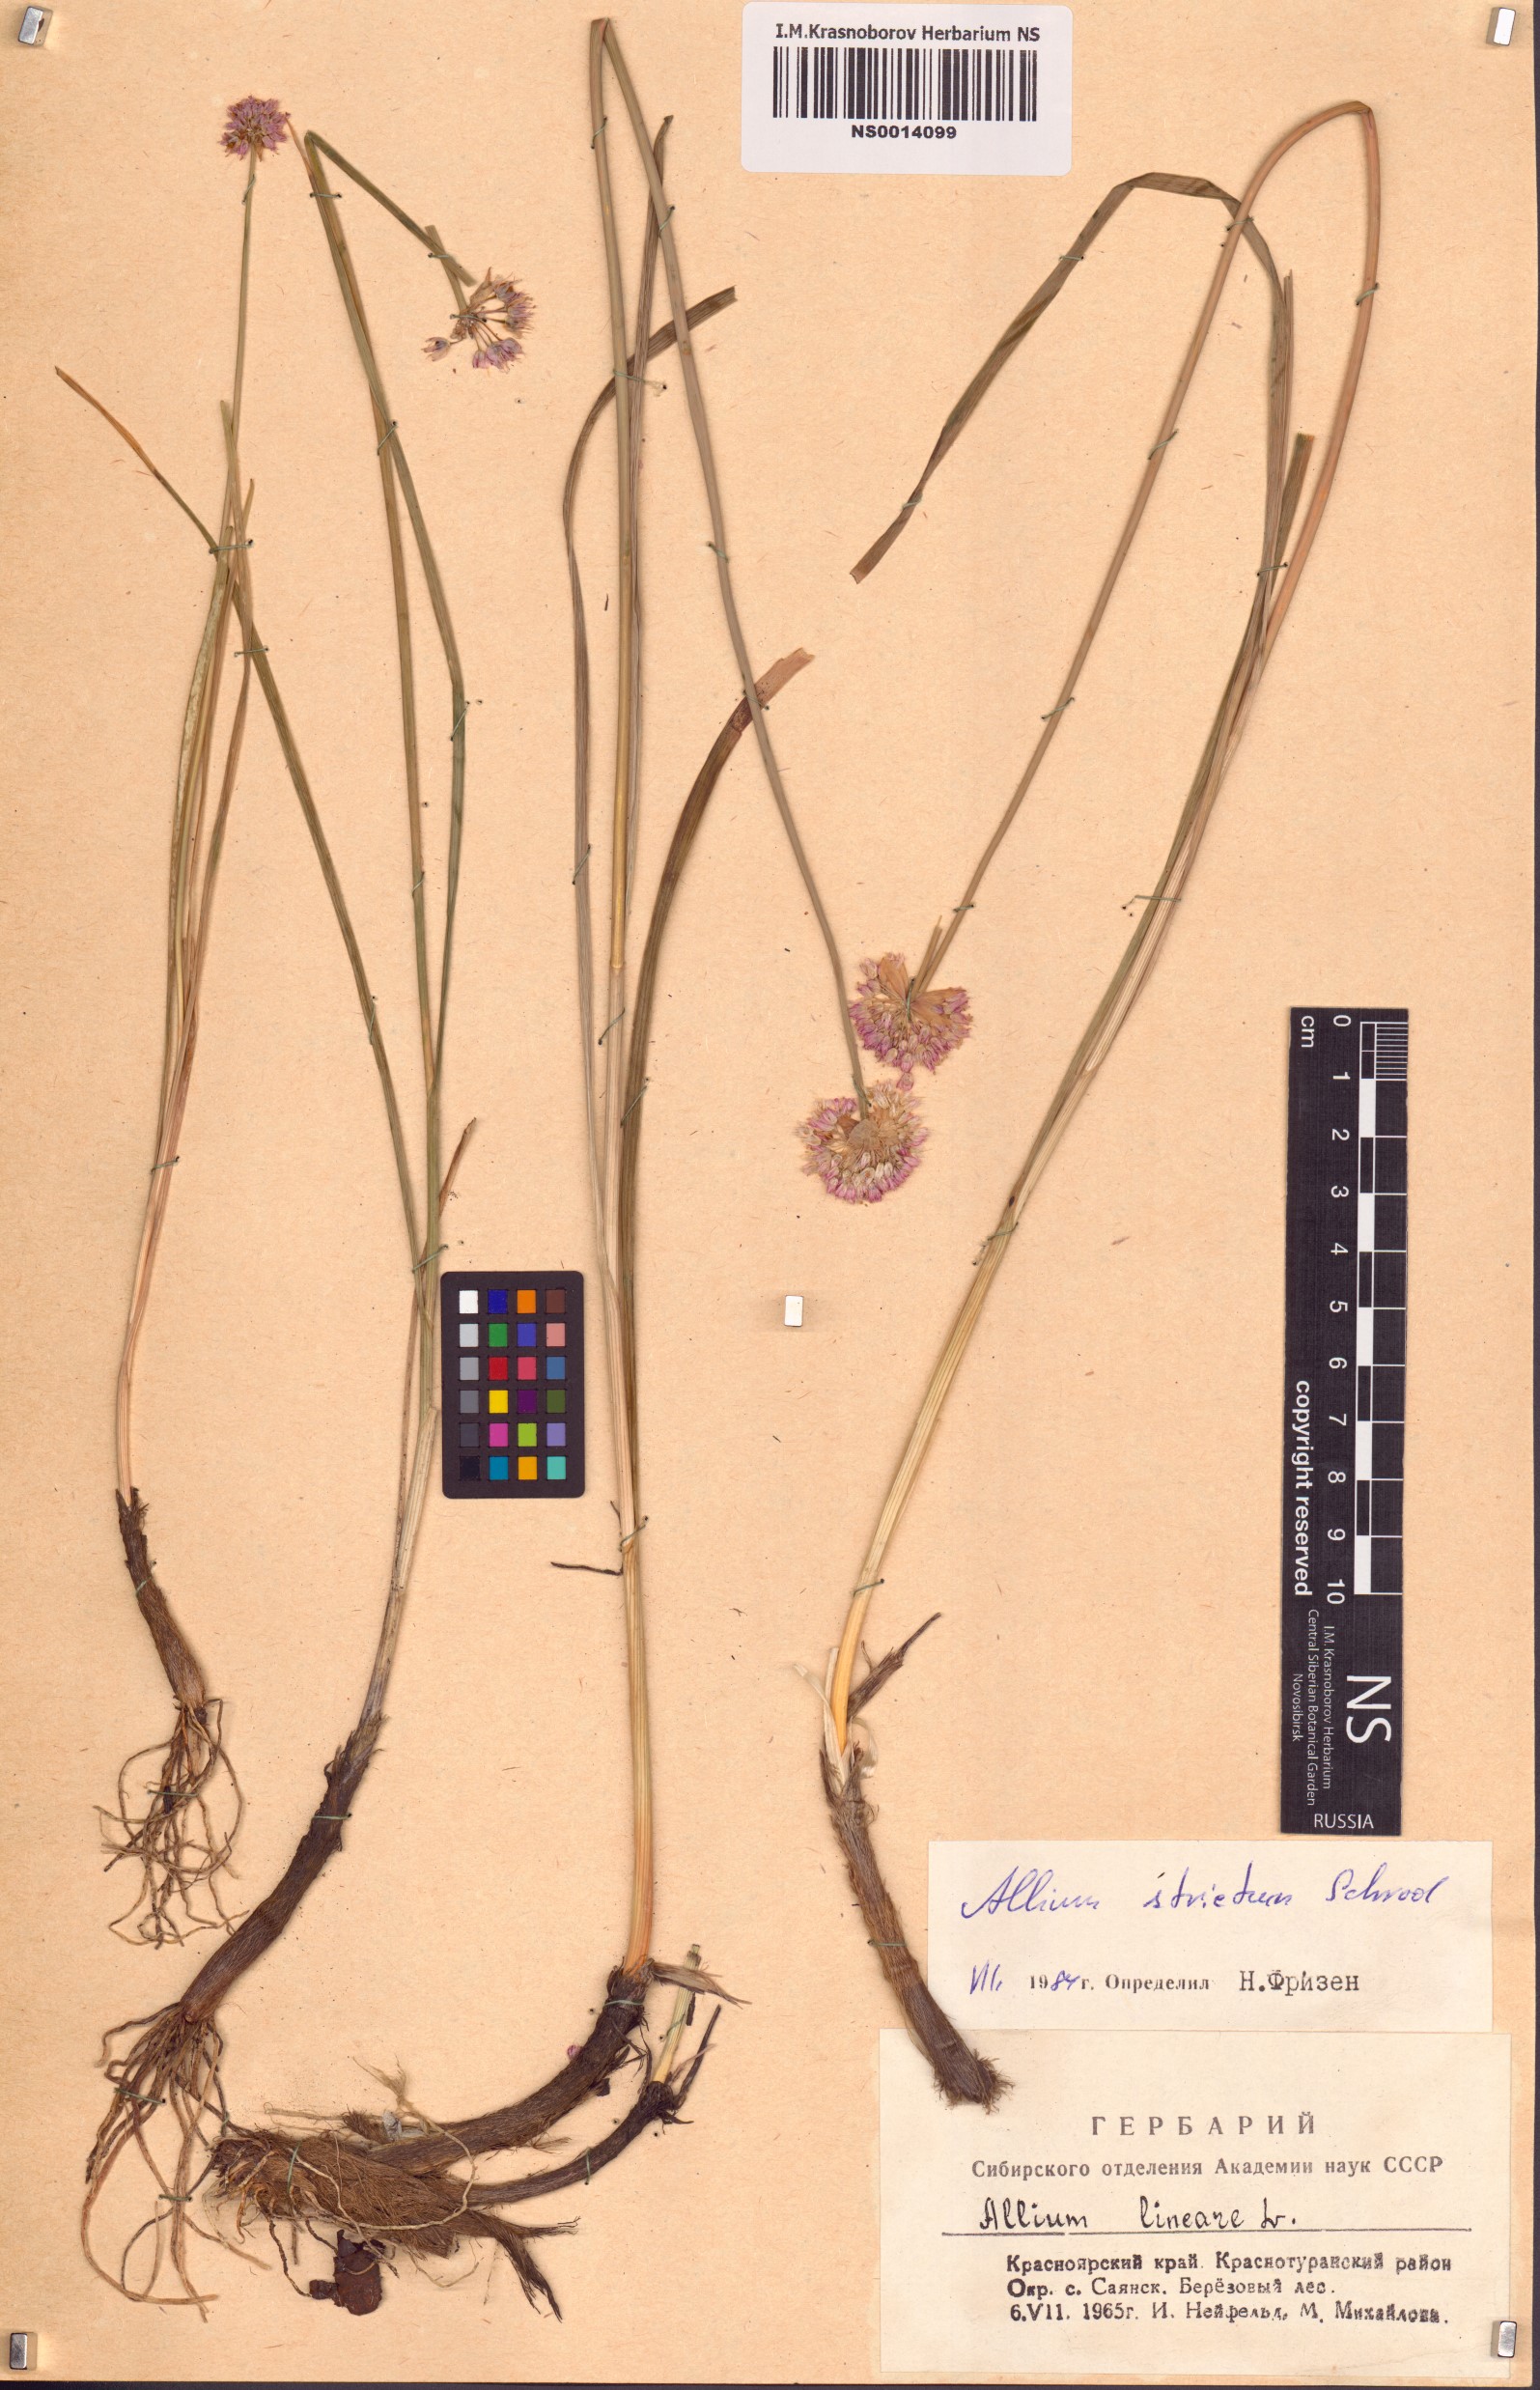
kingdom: Plantae
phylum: Tracheophyta
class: Liliopsida
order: Asparagales
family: Amaryllidaceae
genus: Allium
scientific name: Allium strictum
